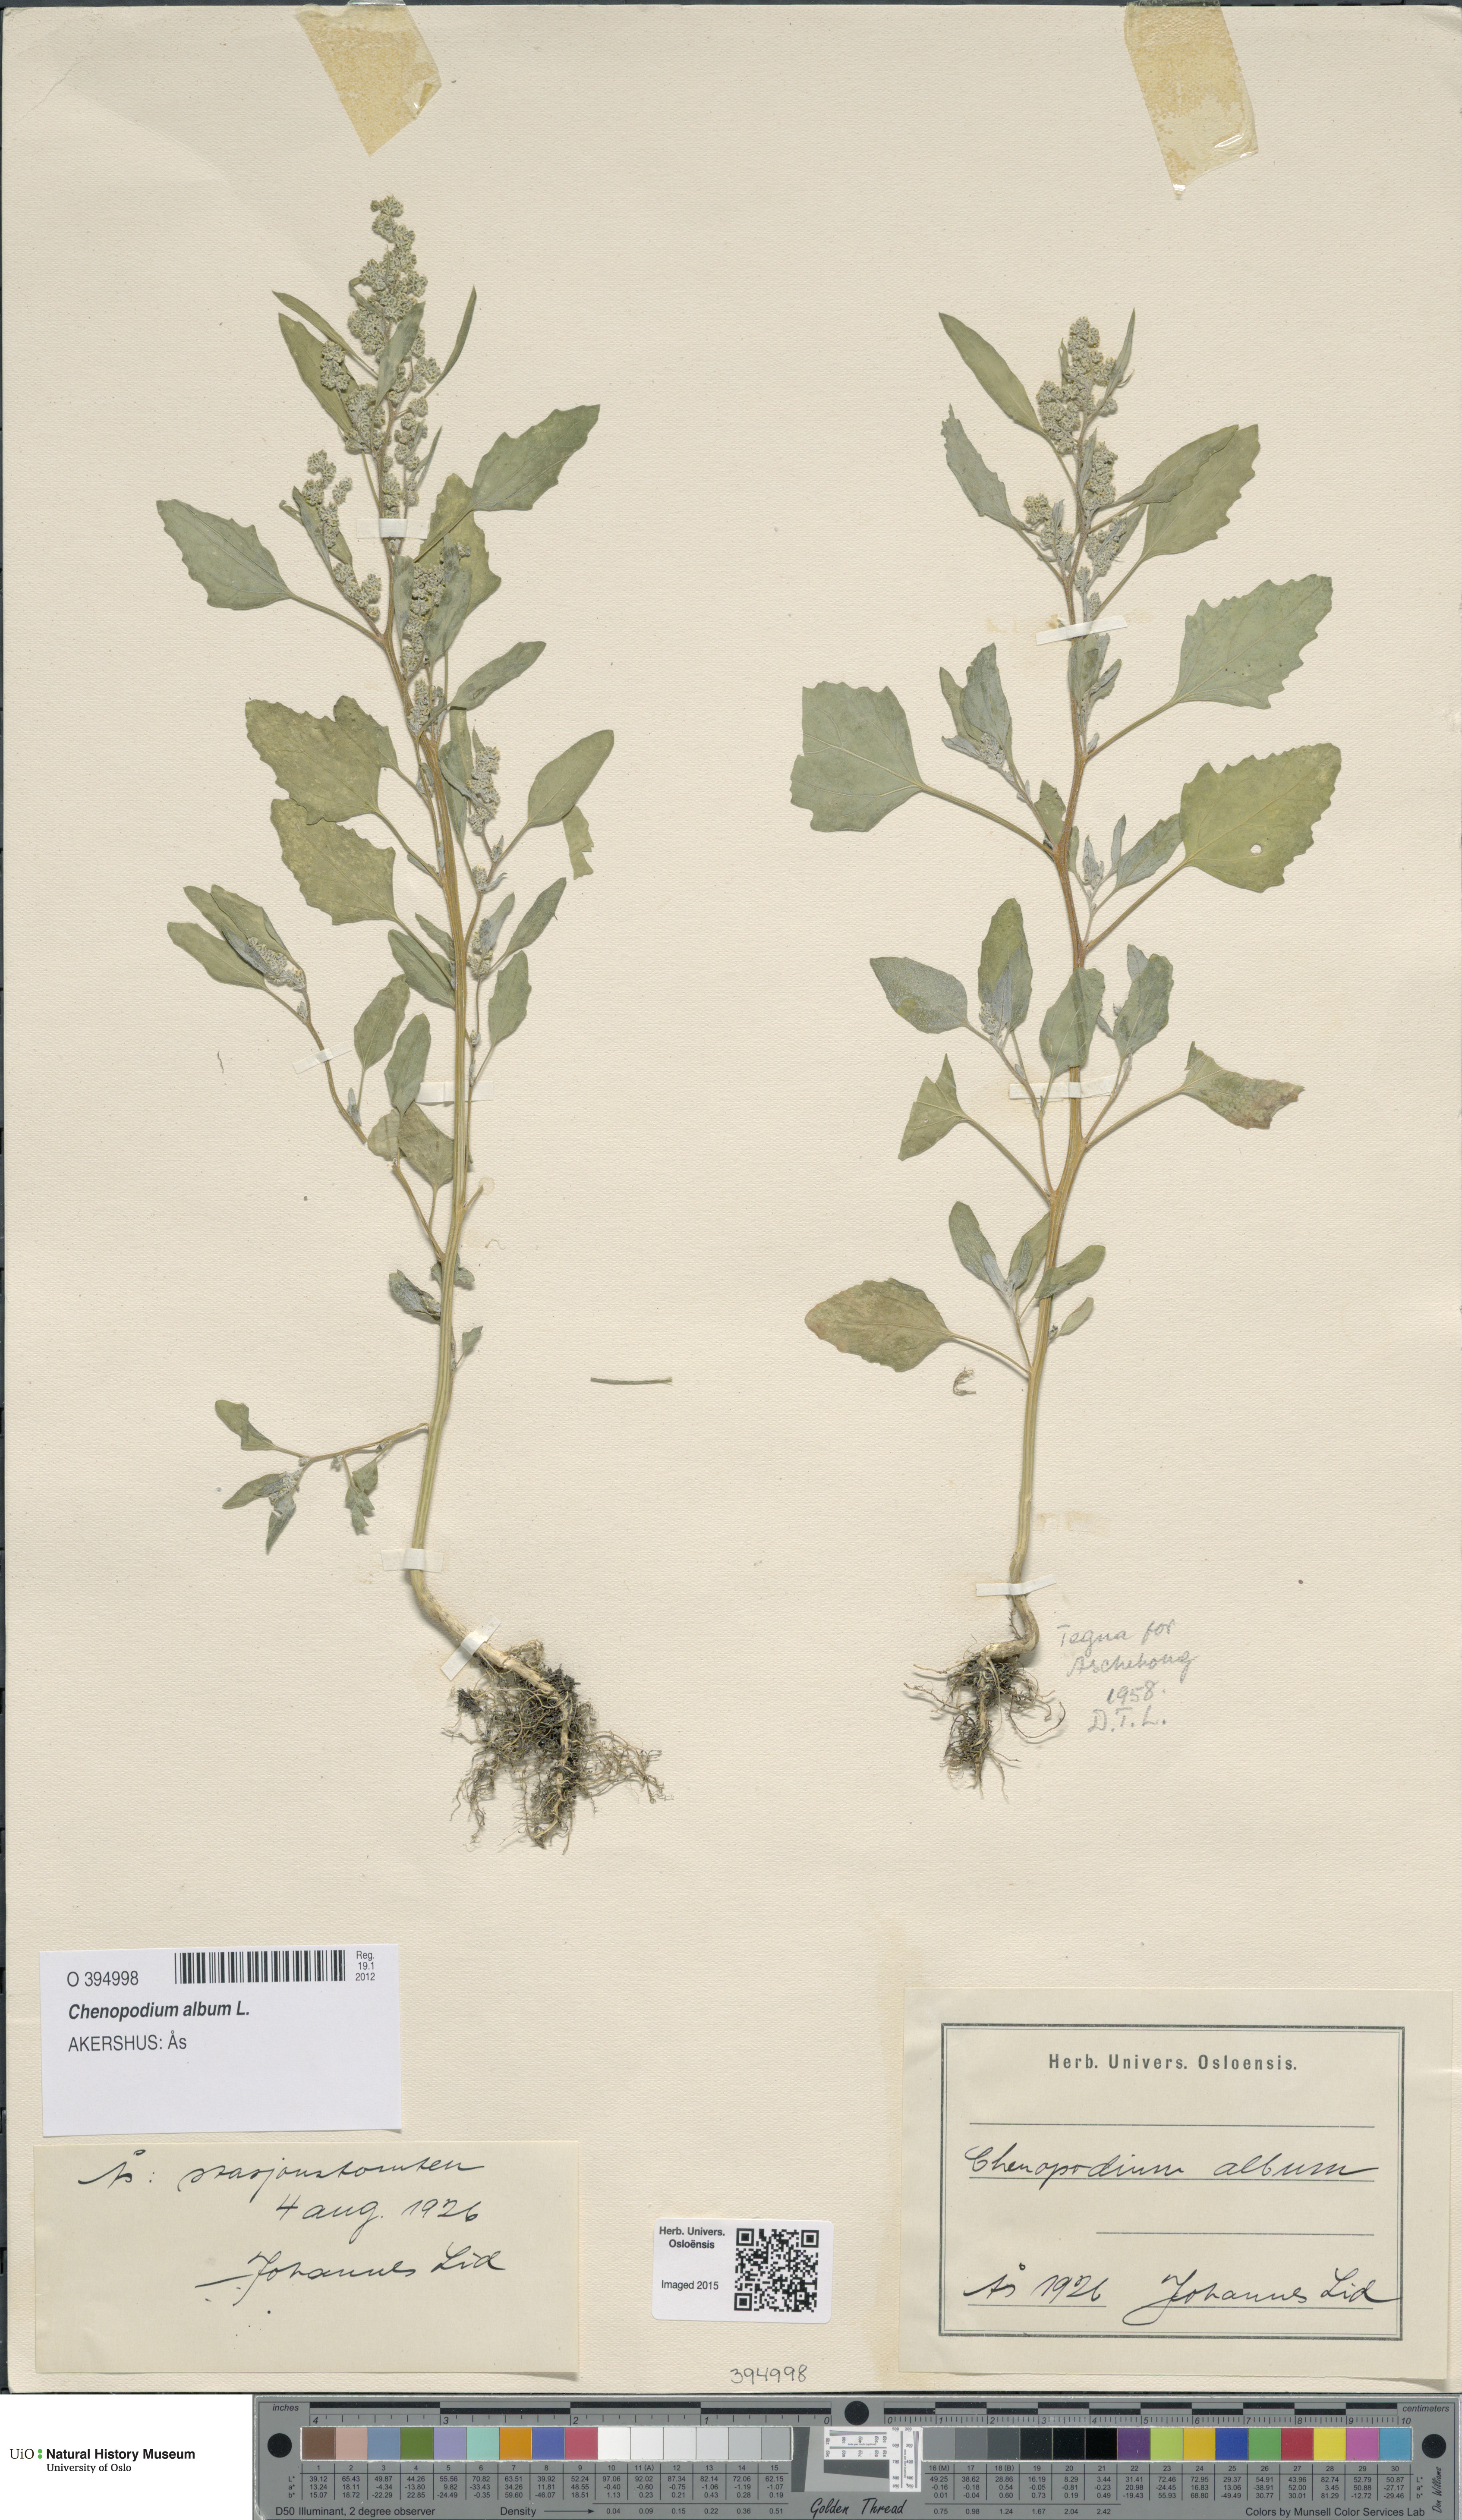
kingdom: Plantae
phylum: Tracheophyta
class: Magnoliopsida
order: Caryophyllales
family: Amaranthaceae
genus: Chenopodium
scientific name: Chenopodium album
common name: Fat-hen
